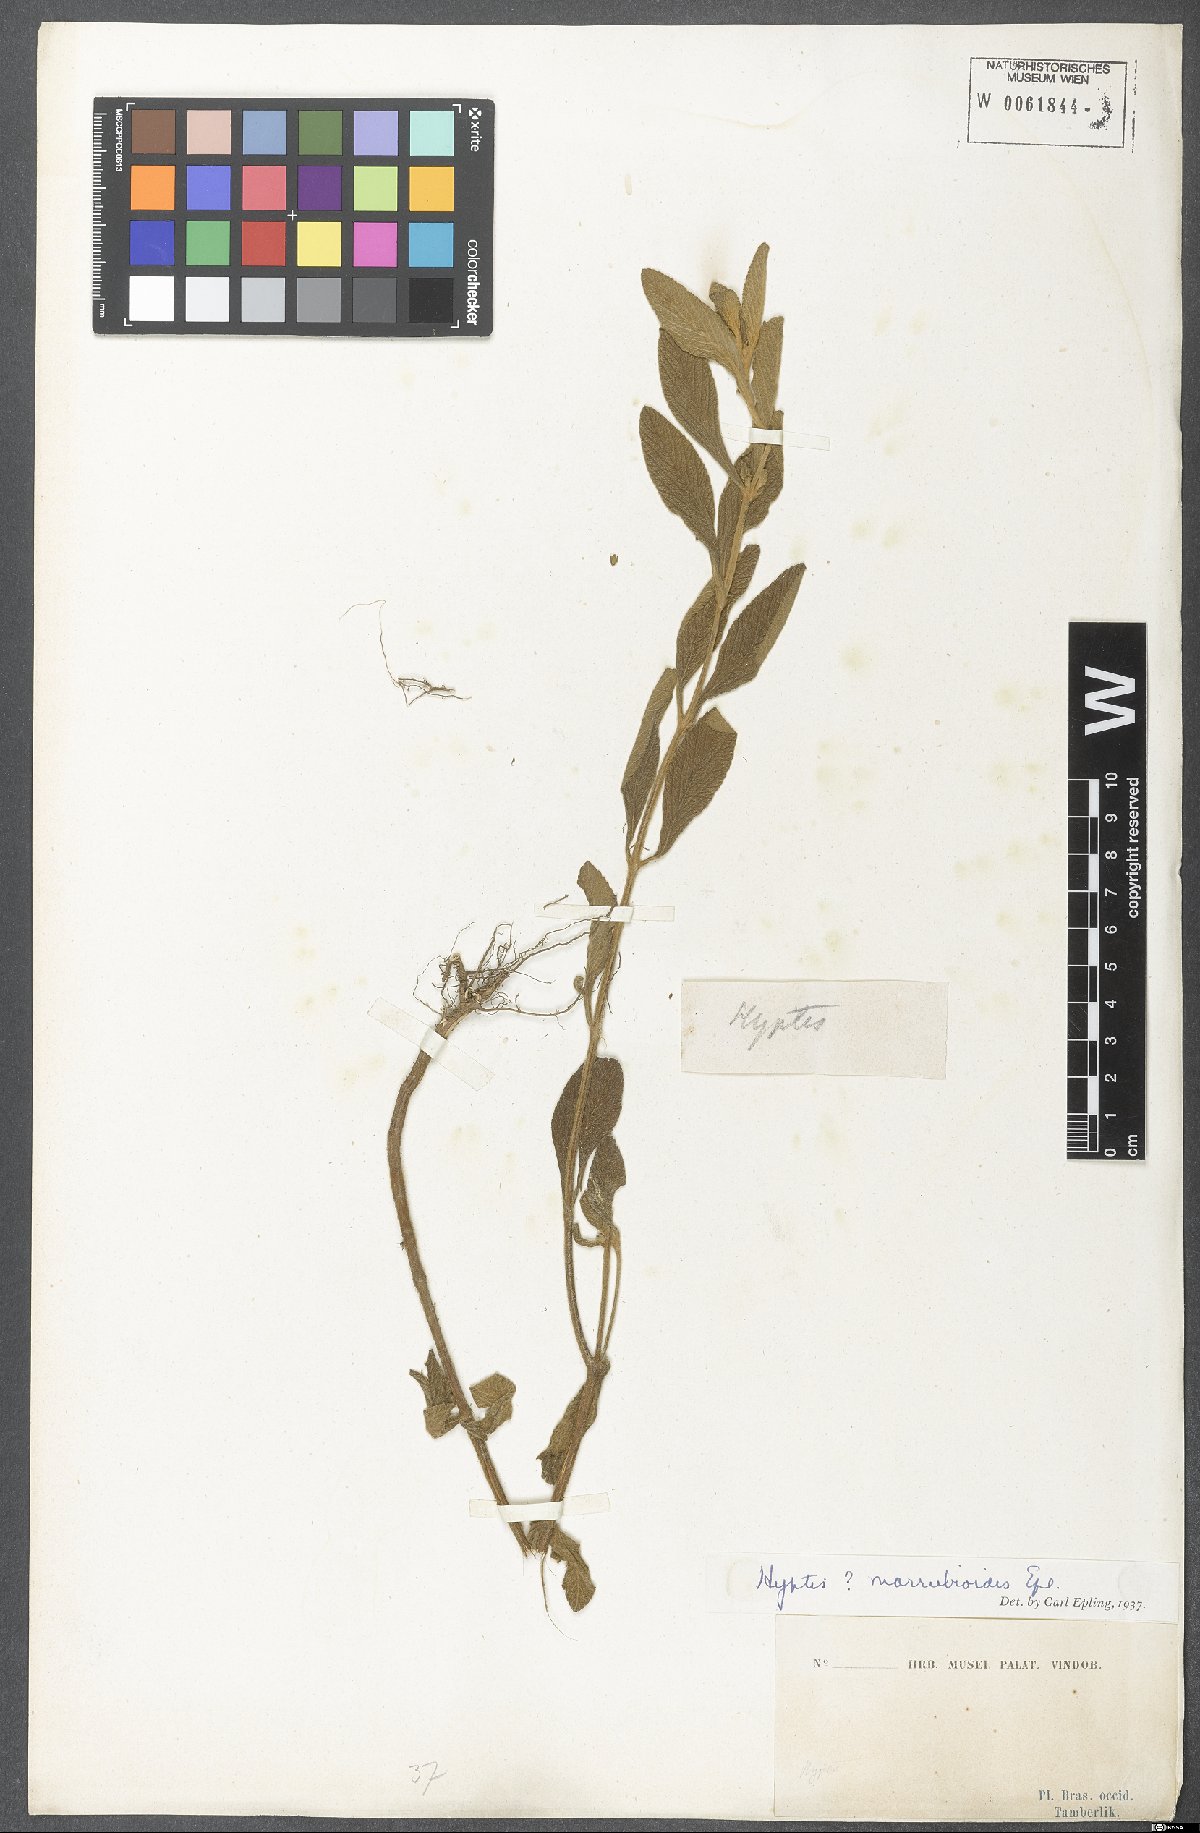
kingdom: Plantae
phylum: Tracheophyta
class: Magnoliopsida
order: Lamiales
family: Lamiaceae
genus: Hyptis
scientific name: Hyptis marrubioides
